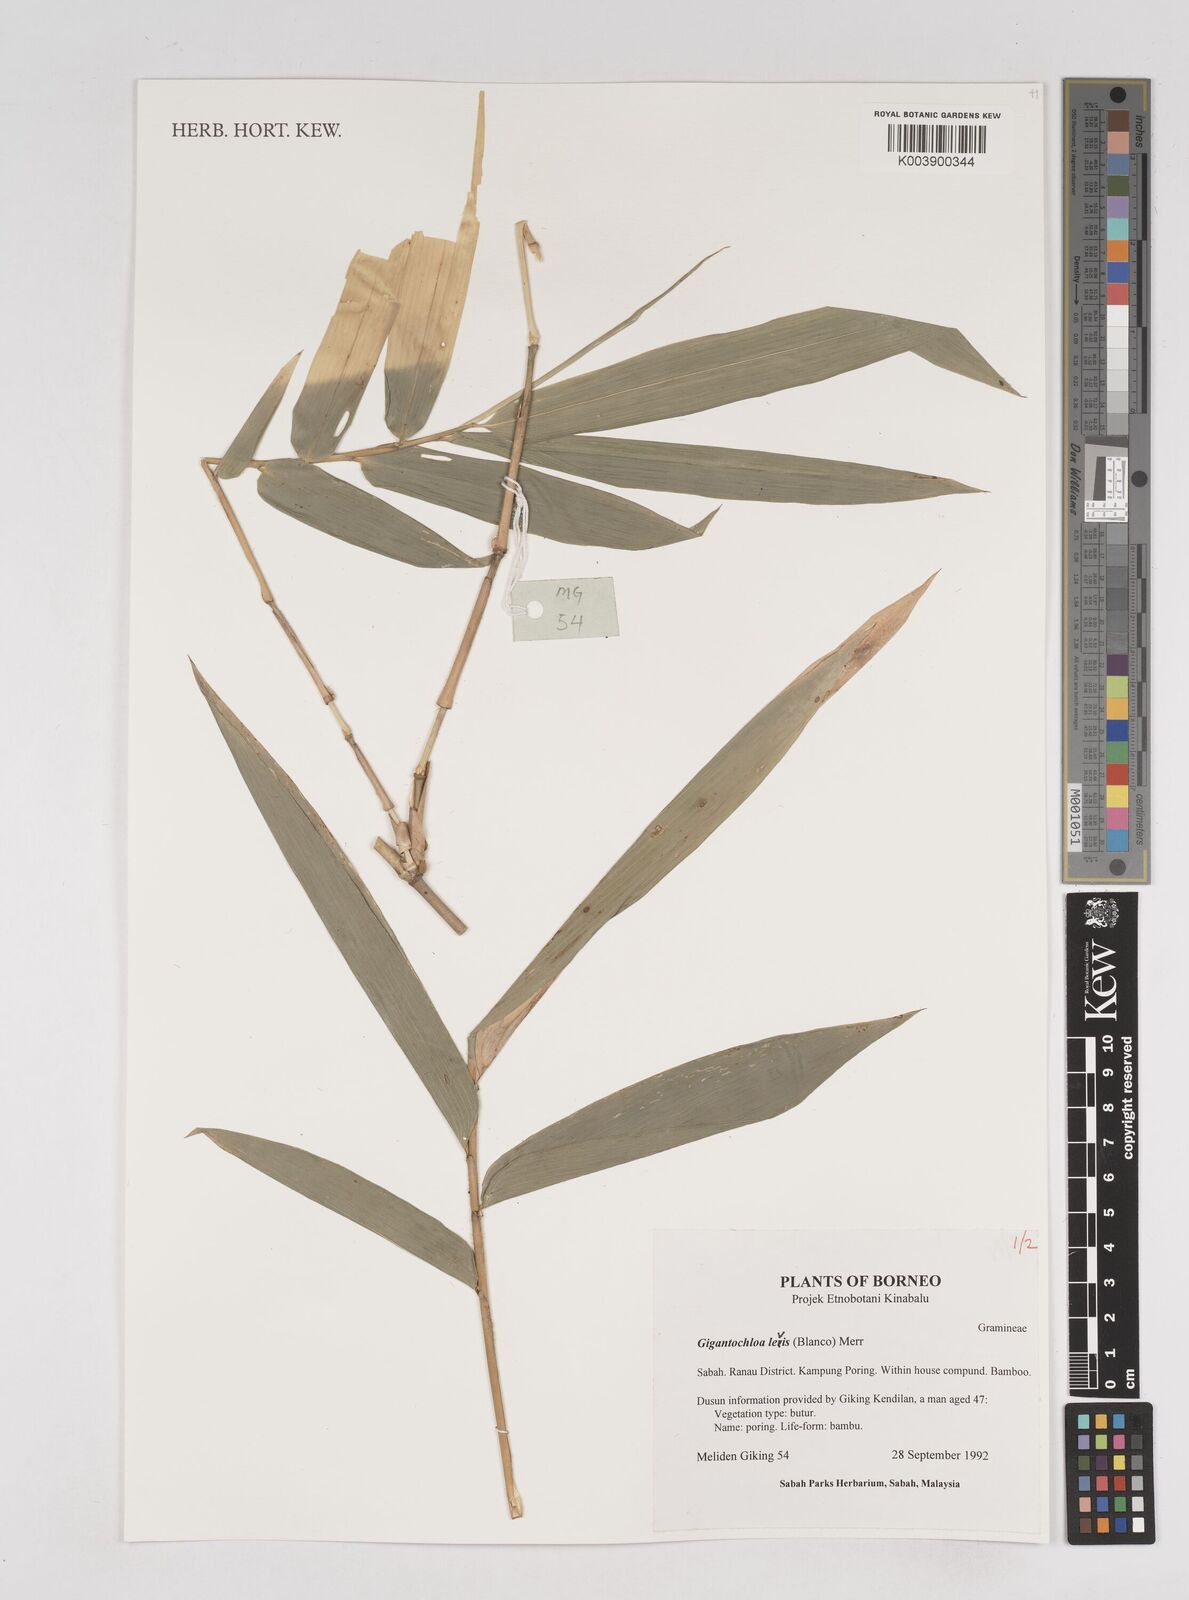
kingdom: Plantae
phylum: Tracheophyta
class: Liliopsida
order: Poales
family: Poaceae
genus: Gigantochloa
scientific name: Gigantochloa levis
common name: Smooth-shoot gigantochloa
